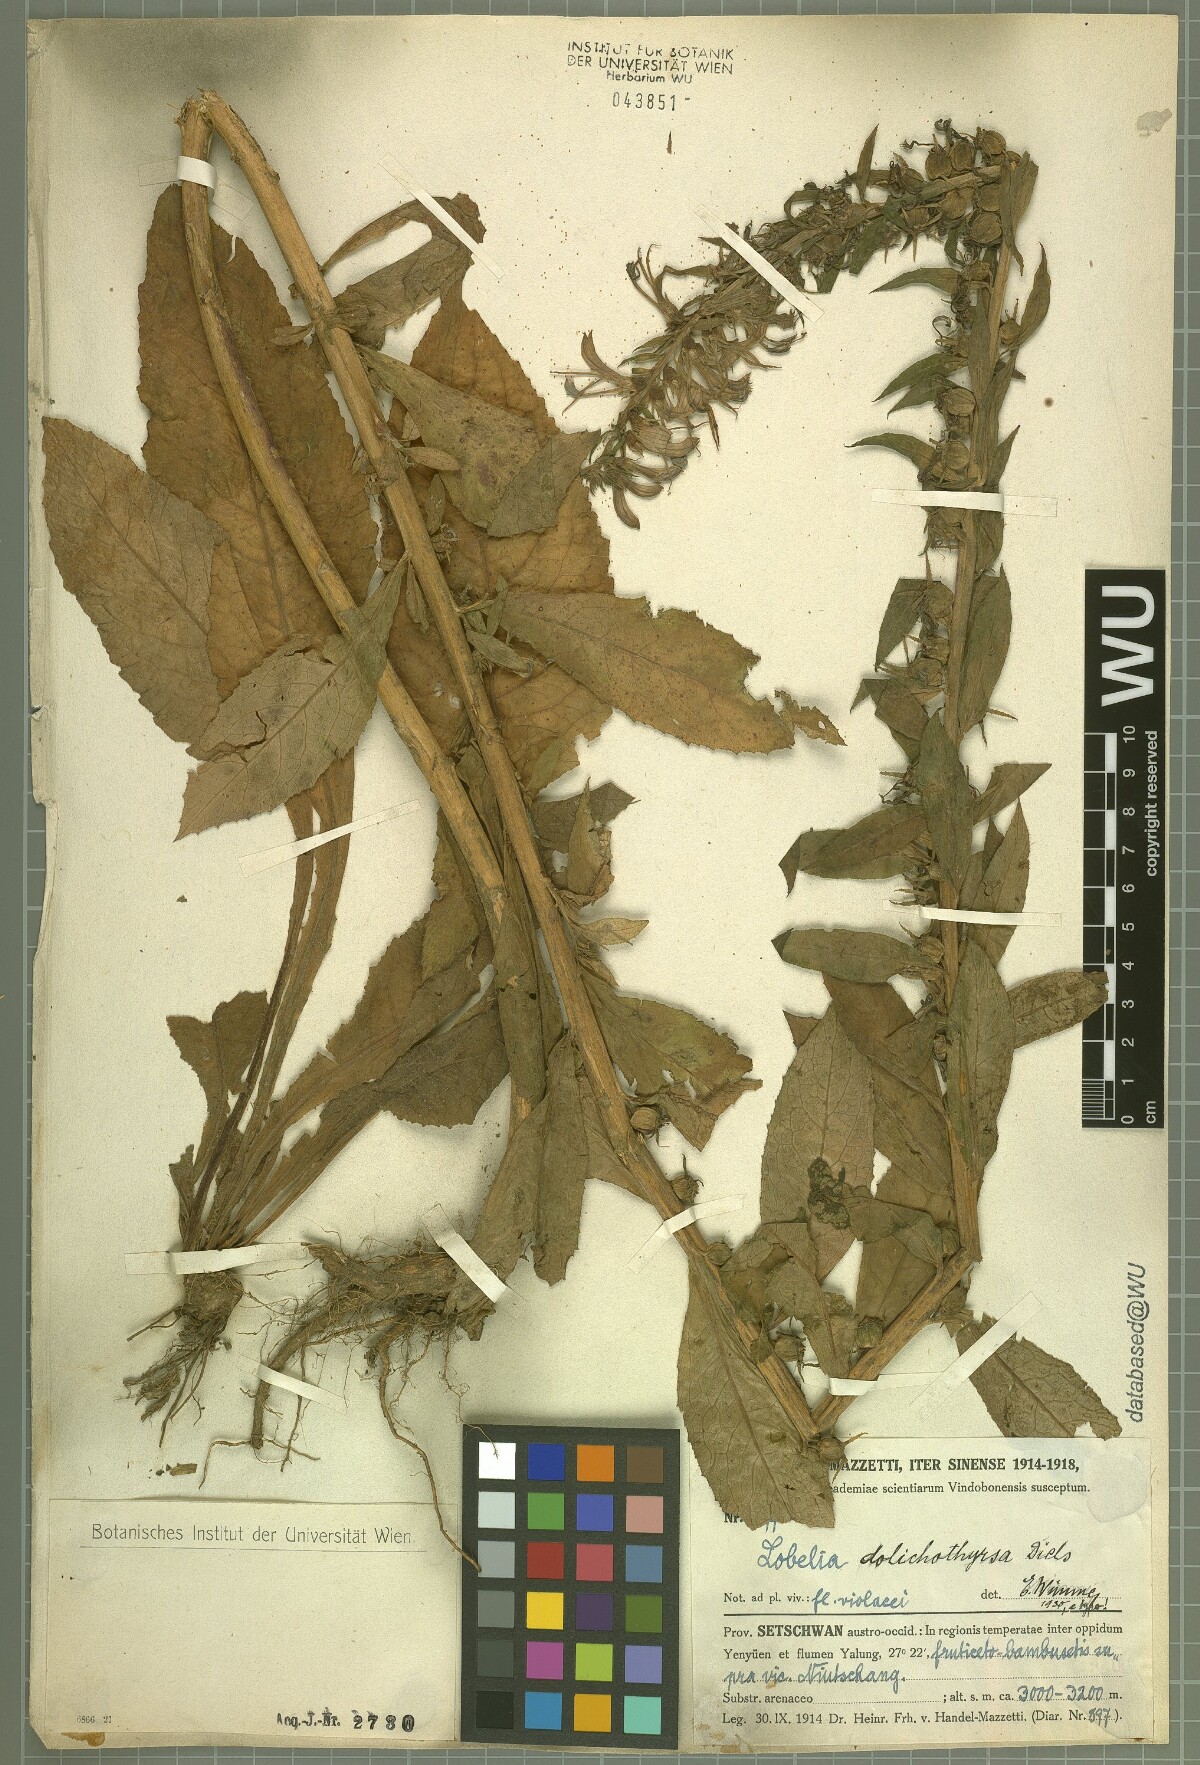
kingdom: Plantae
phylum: Tracheophyta
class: Magnoliopsida
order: Asterales
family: Campanulaceae
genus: Lobelia
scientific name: Lobelia davidii
